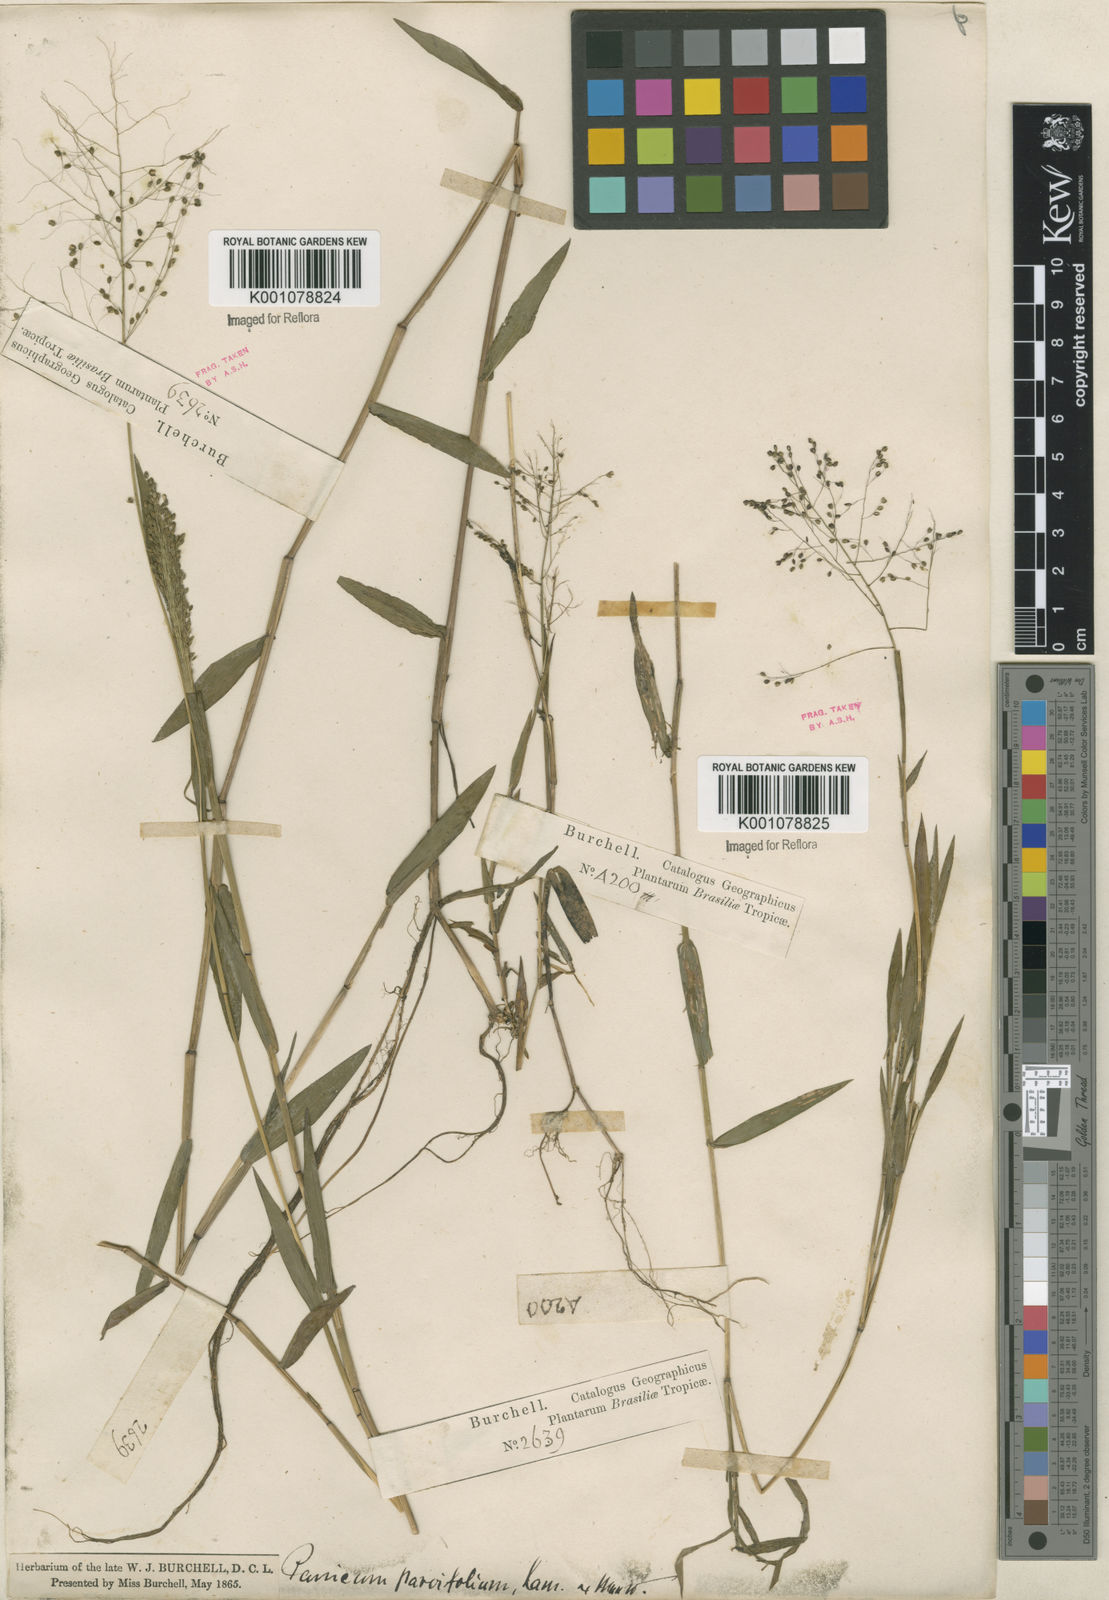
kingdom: Plantae
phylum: Tracheophyta
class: Liliopsida
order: Poales
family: Poaceae
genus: Trichanthecium
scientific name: Trichanthecium schwackeanum
